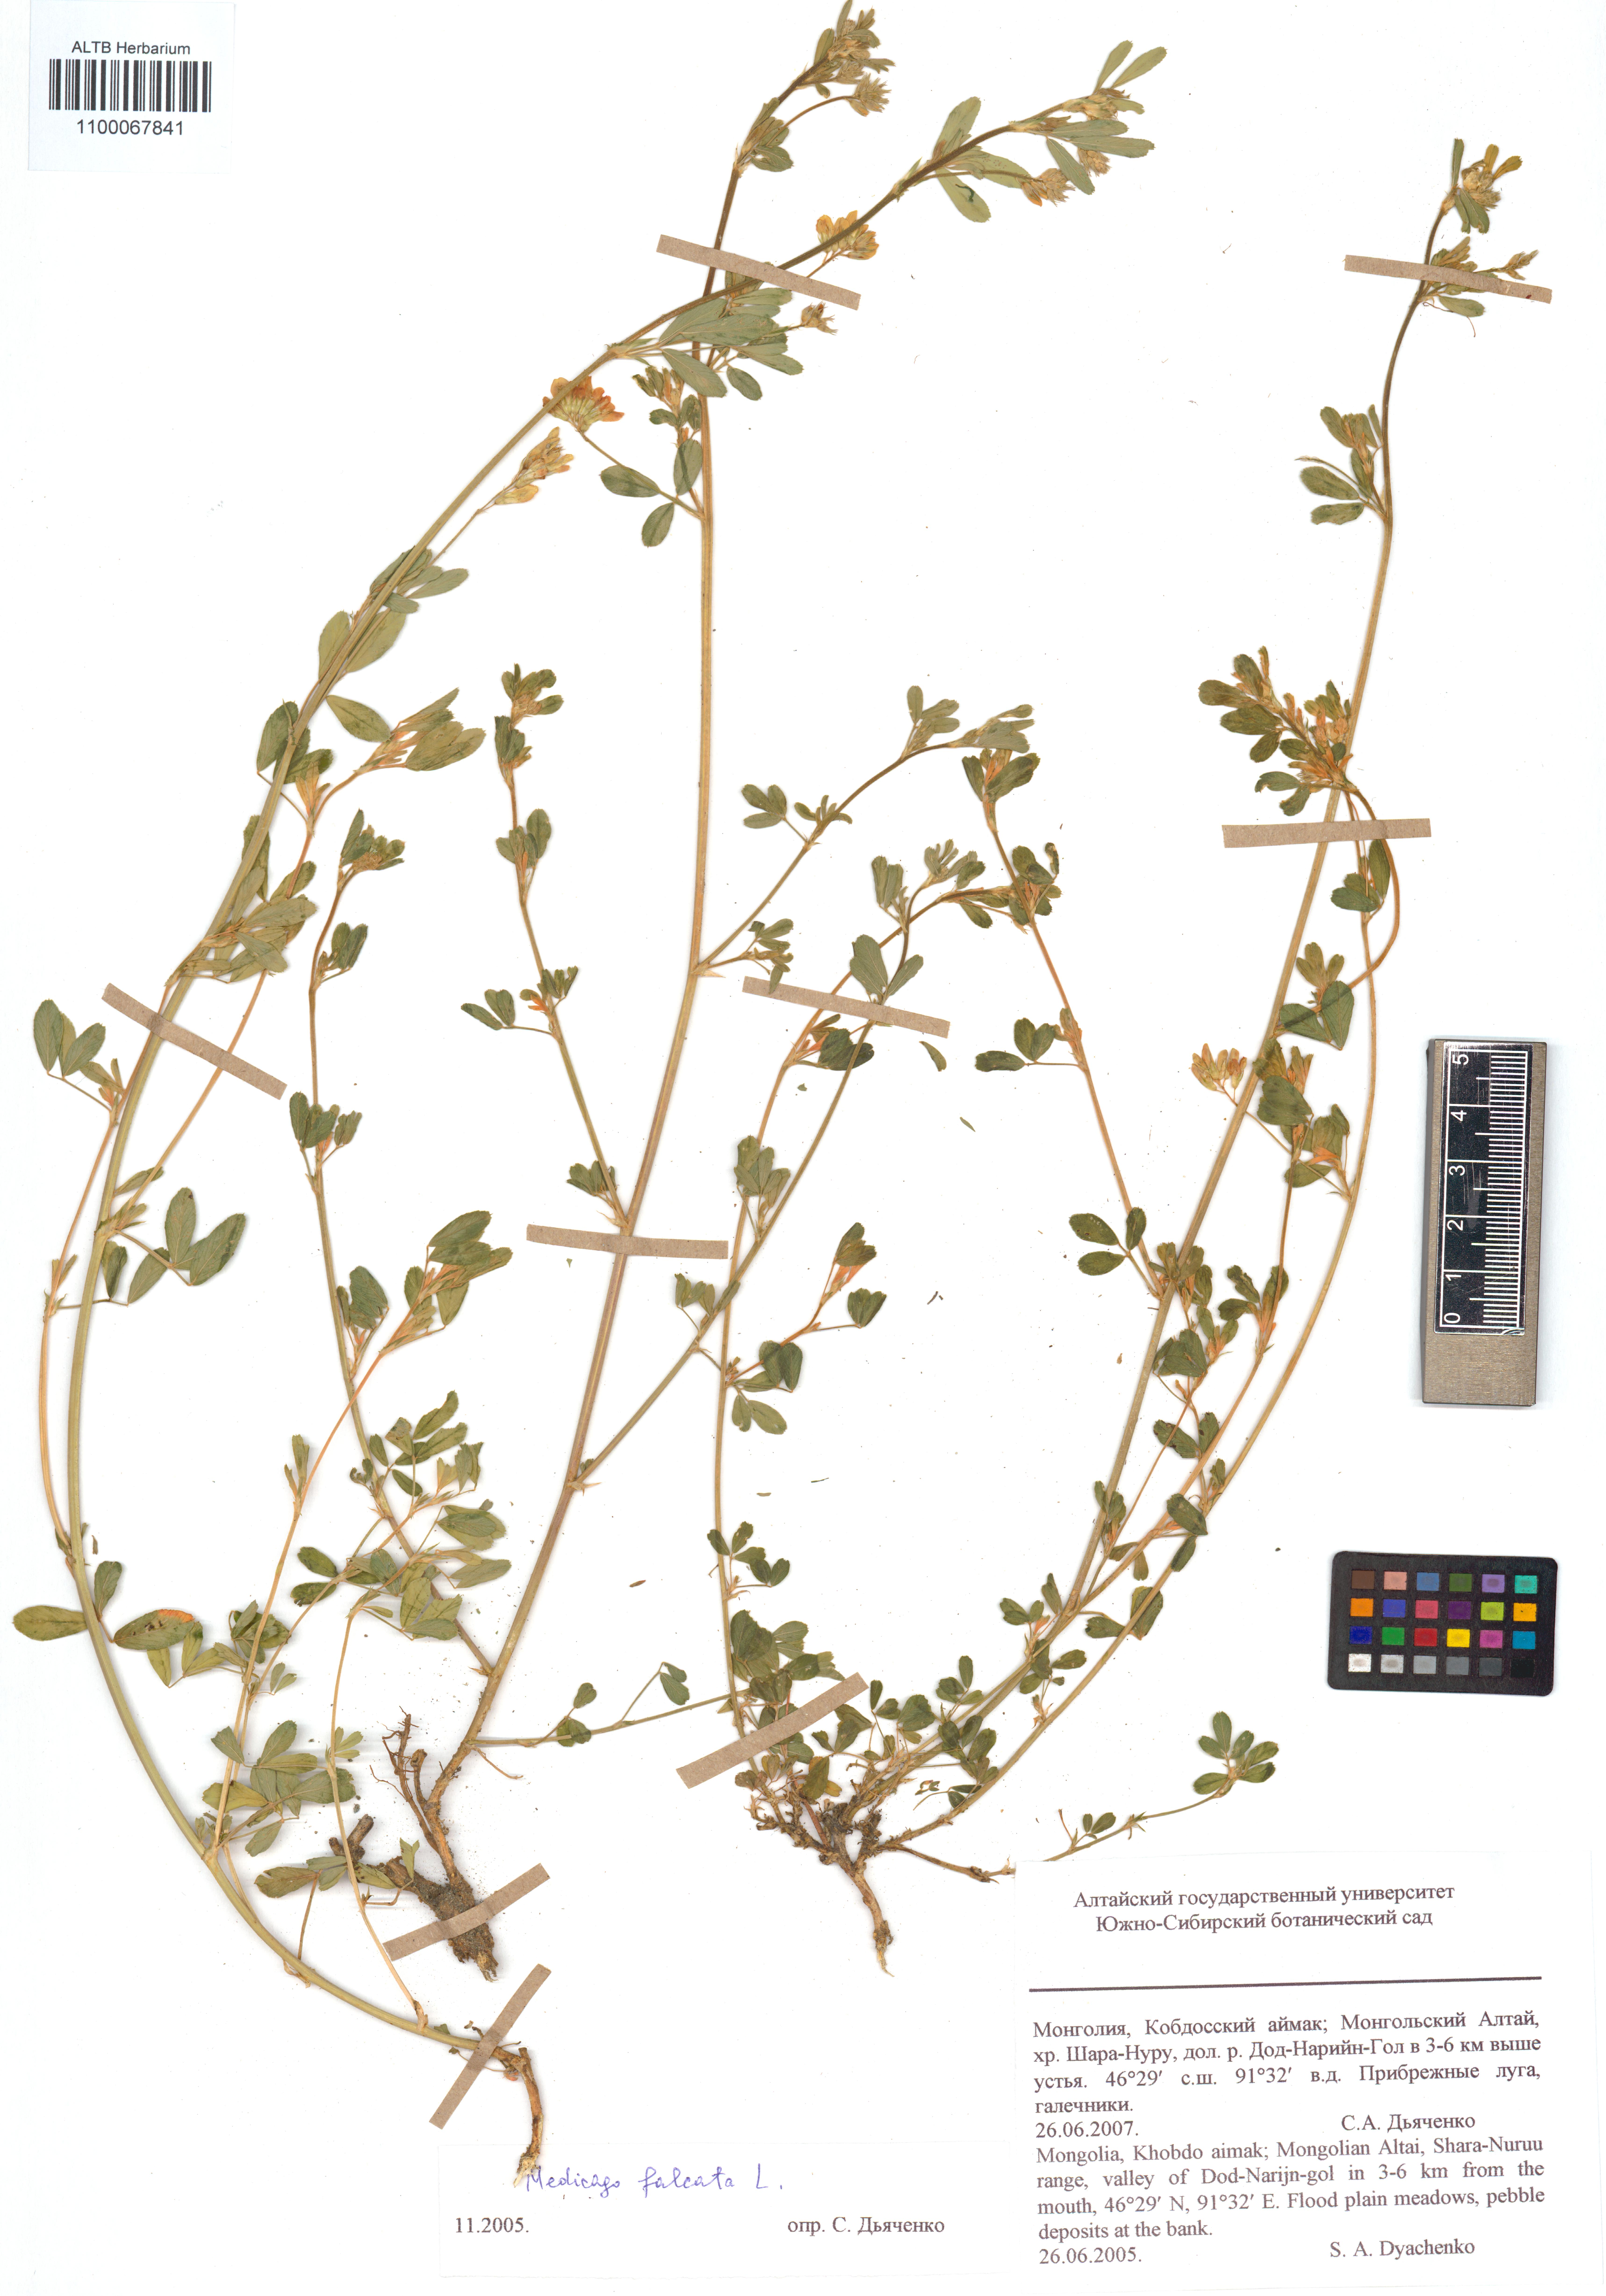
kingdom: Plantae
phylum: Tracheophyta
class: Magnoliopsida
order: Fabales
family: Fabaceae
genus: Medicago
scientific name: Medicago falcata
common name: Sickle medick
